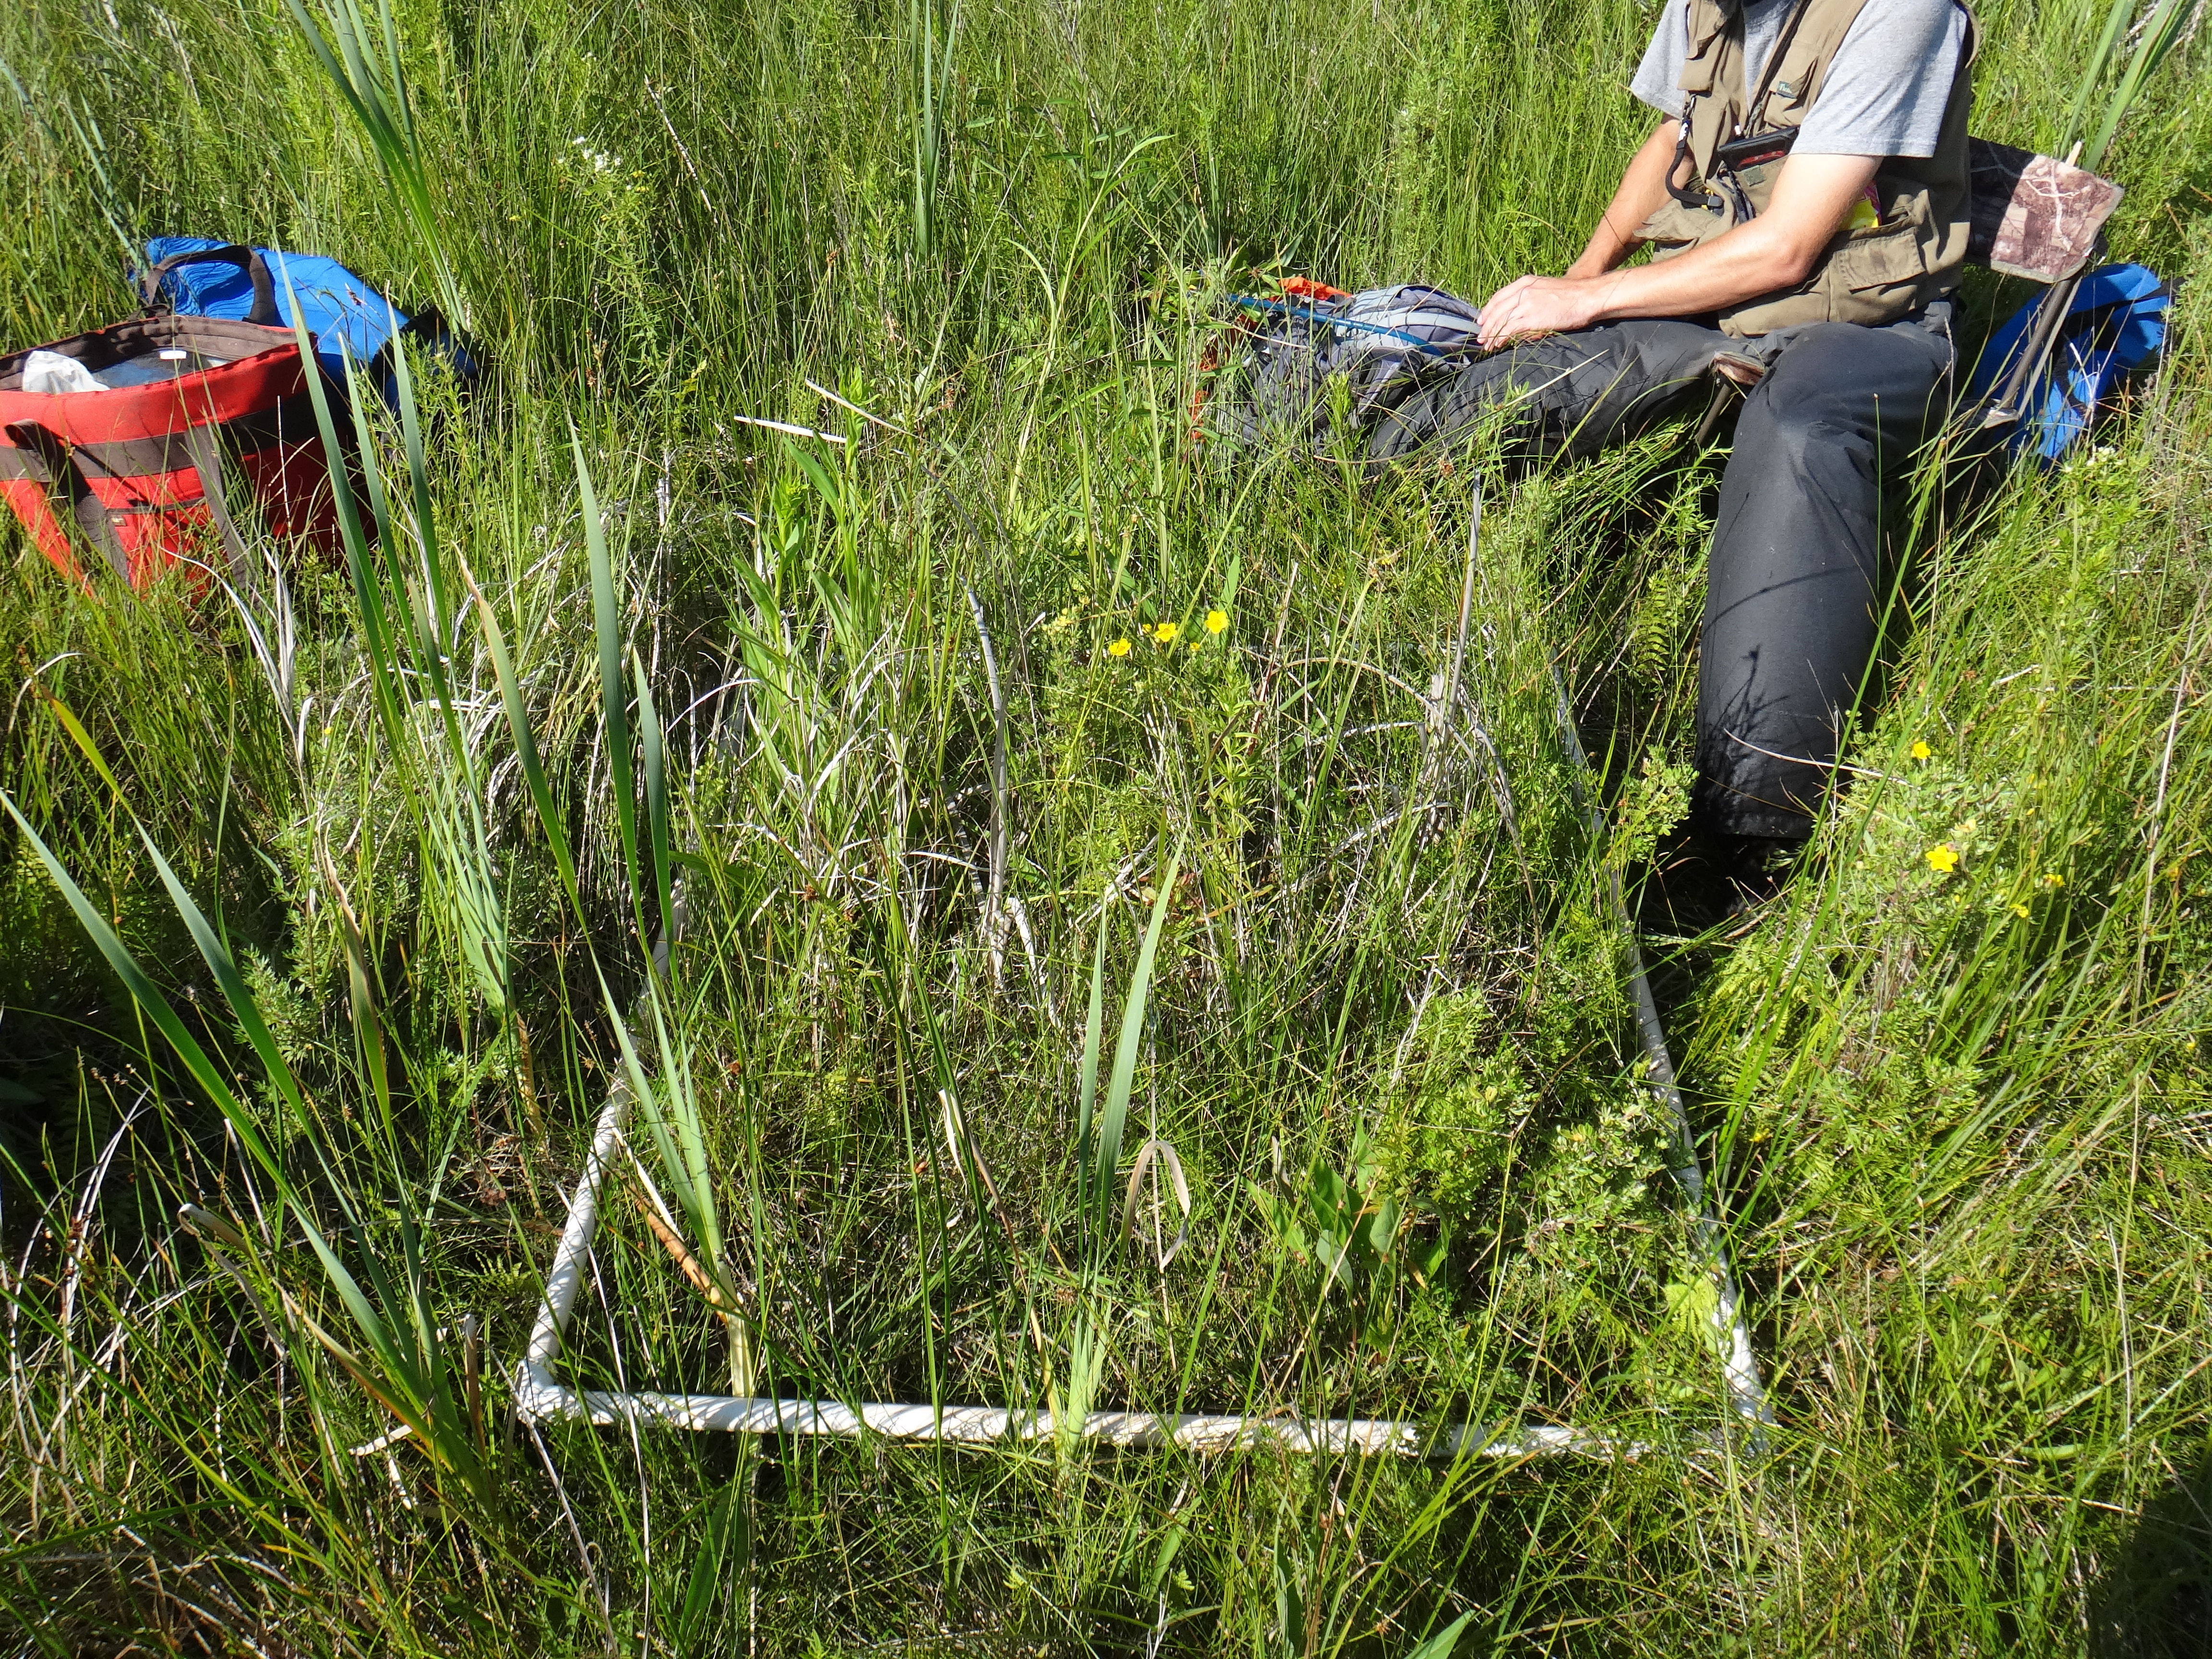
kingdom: Plantae
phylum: Tracheophyta
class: Liliopsida
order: Poales
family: Cyperaceae
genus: Eleocharis
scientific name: Eleocharis rostellata
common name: Walking sedge
